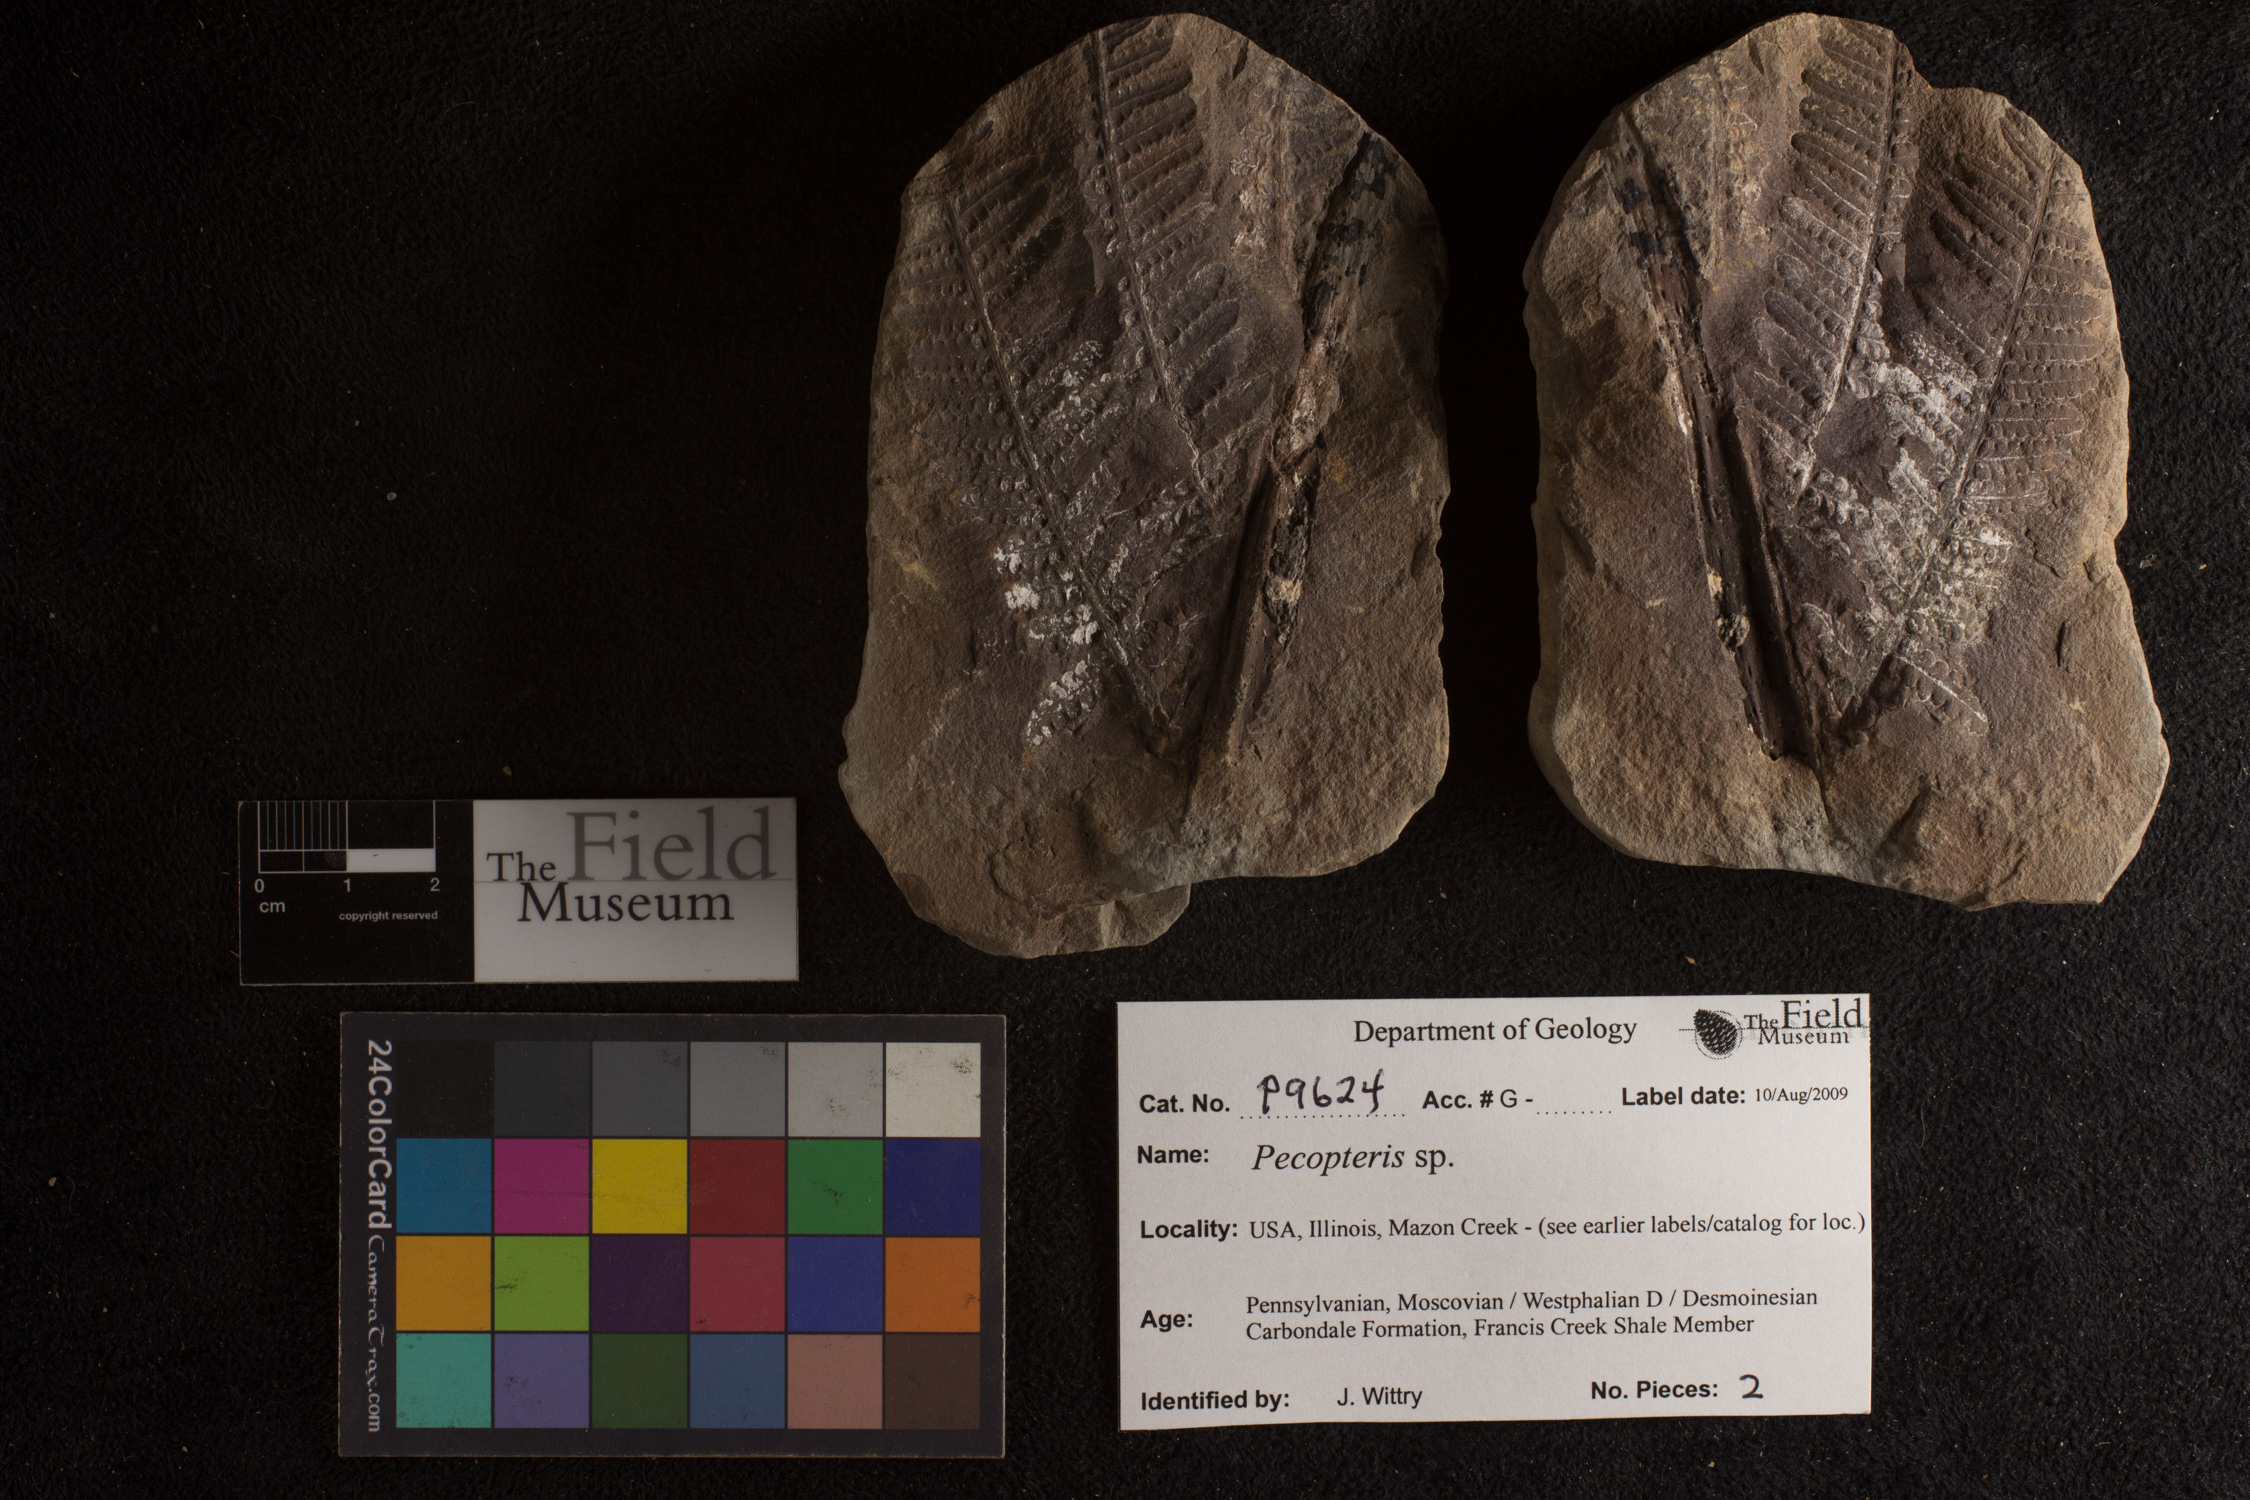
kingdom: Plantae
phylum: Tracheophyta
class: Polypodiopsida
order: Marattiales
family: Asterothecaceae
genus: Pecopteris
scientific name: Pecopteris
